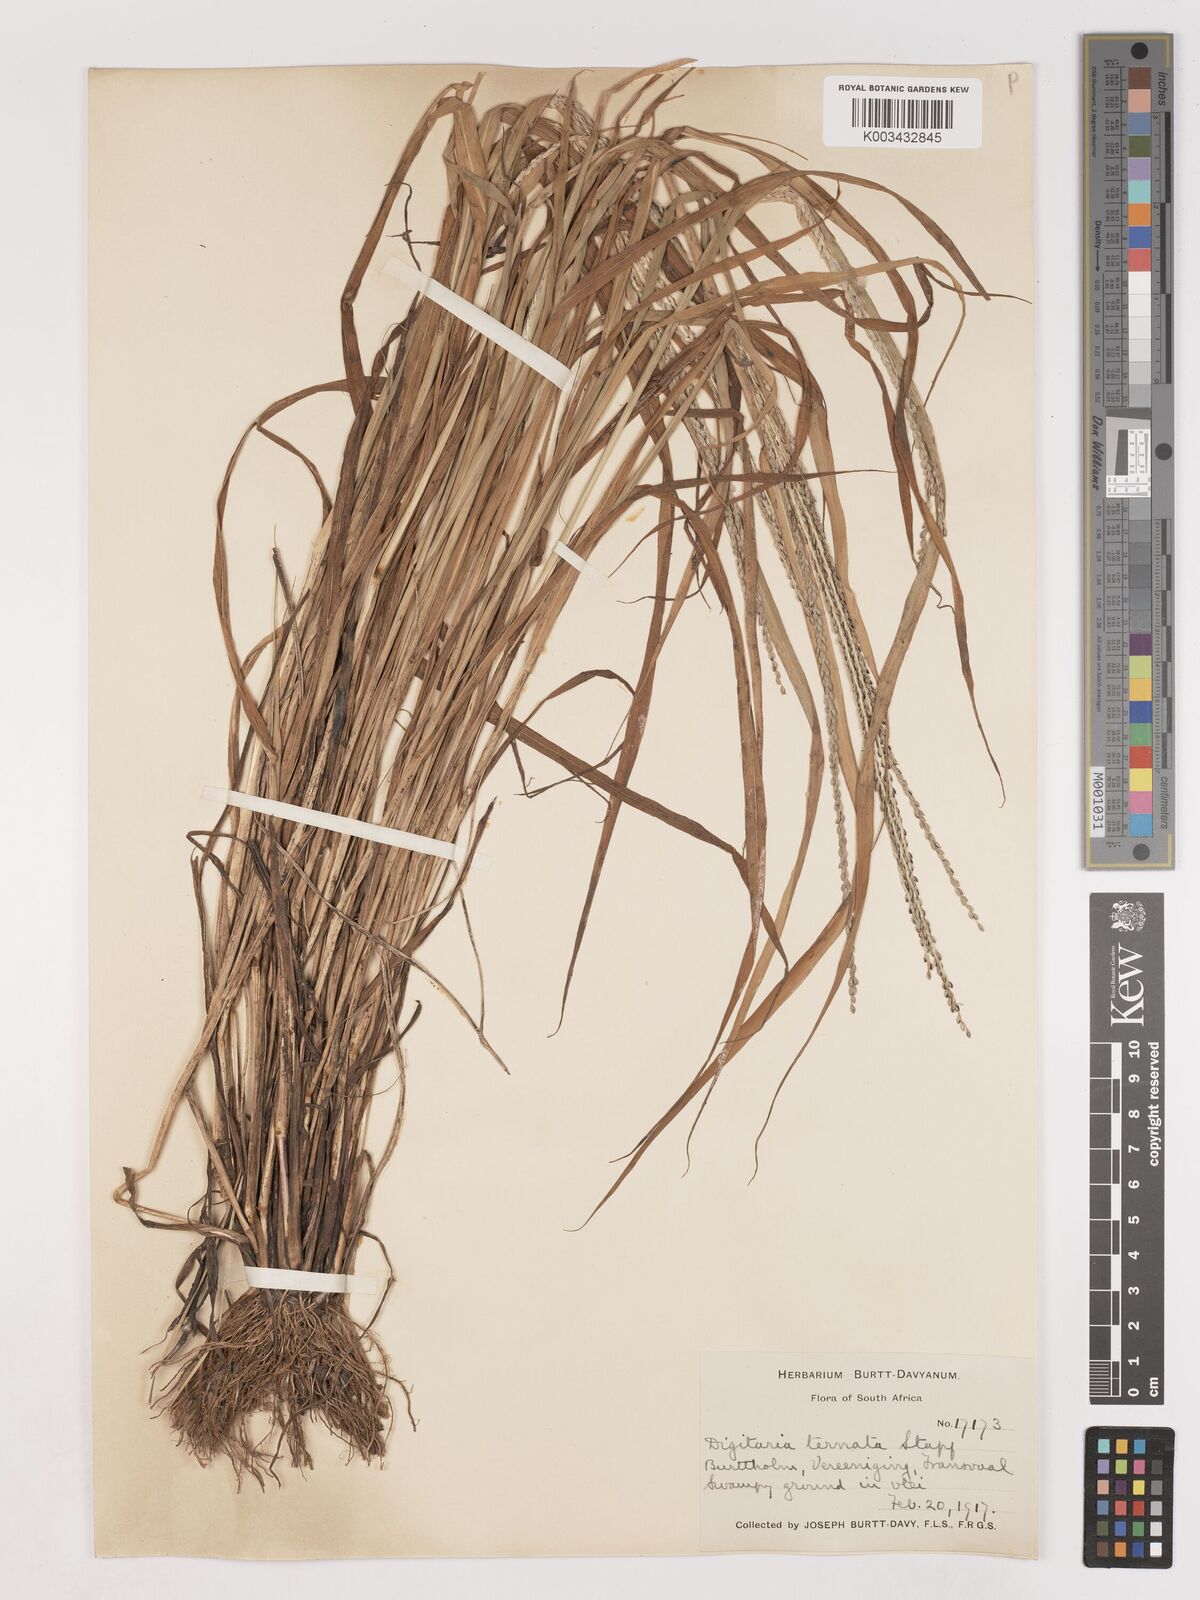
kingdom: Plantae
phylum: Tracheophyta
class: Liliopsida
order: Poales
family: Poaceae
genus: Digitaria
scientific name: Digitaria ternata
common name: Blackseed crabgrass
